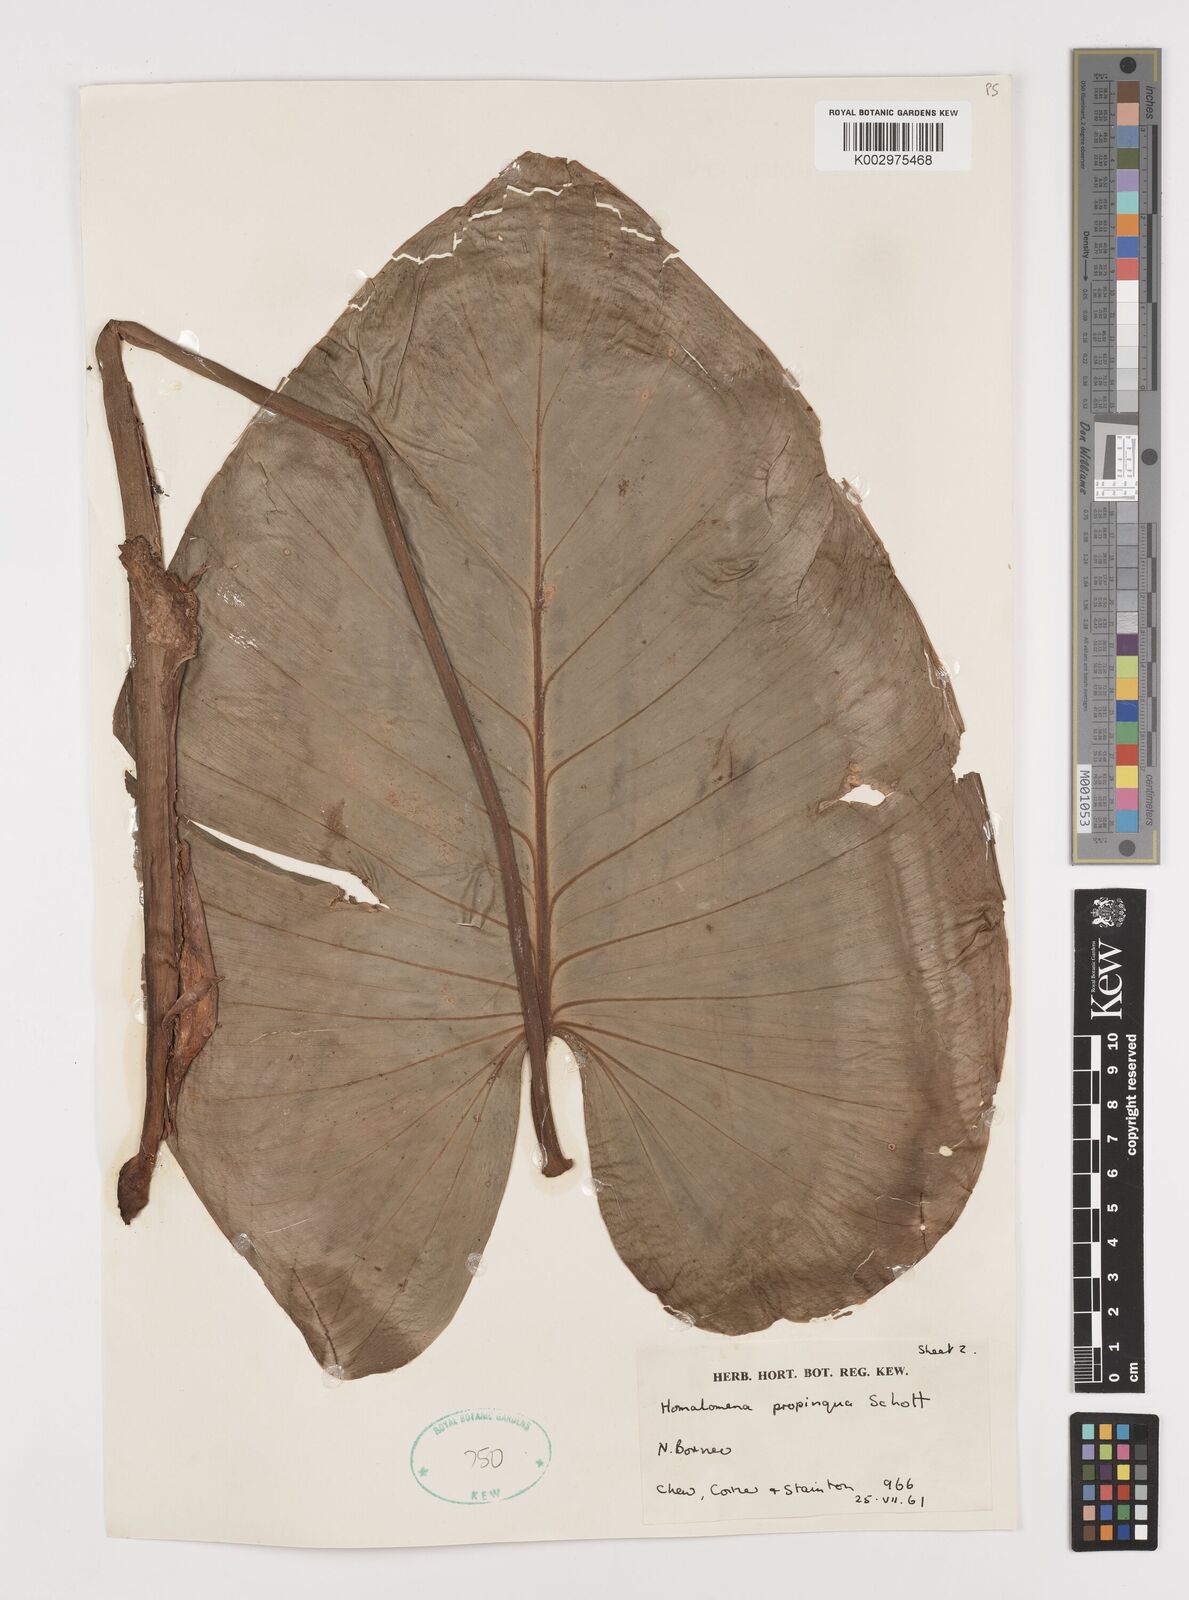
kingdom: Plantae
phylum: Tracheophyta
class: Liliopsida
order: Alismatales
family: Araceae
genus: Homalomena
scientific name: Homalomena humilis
